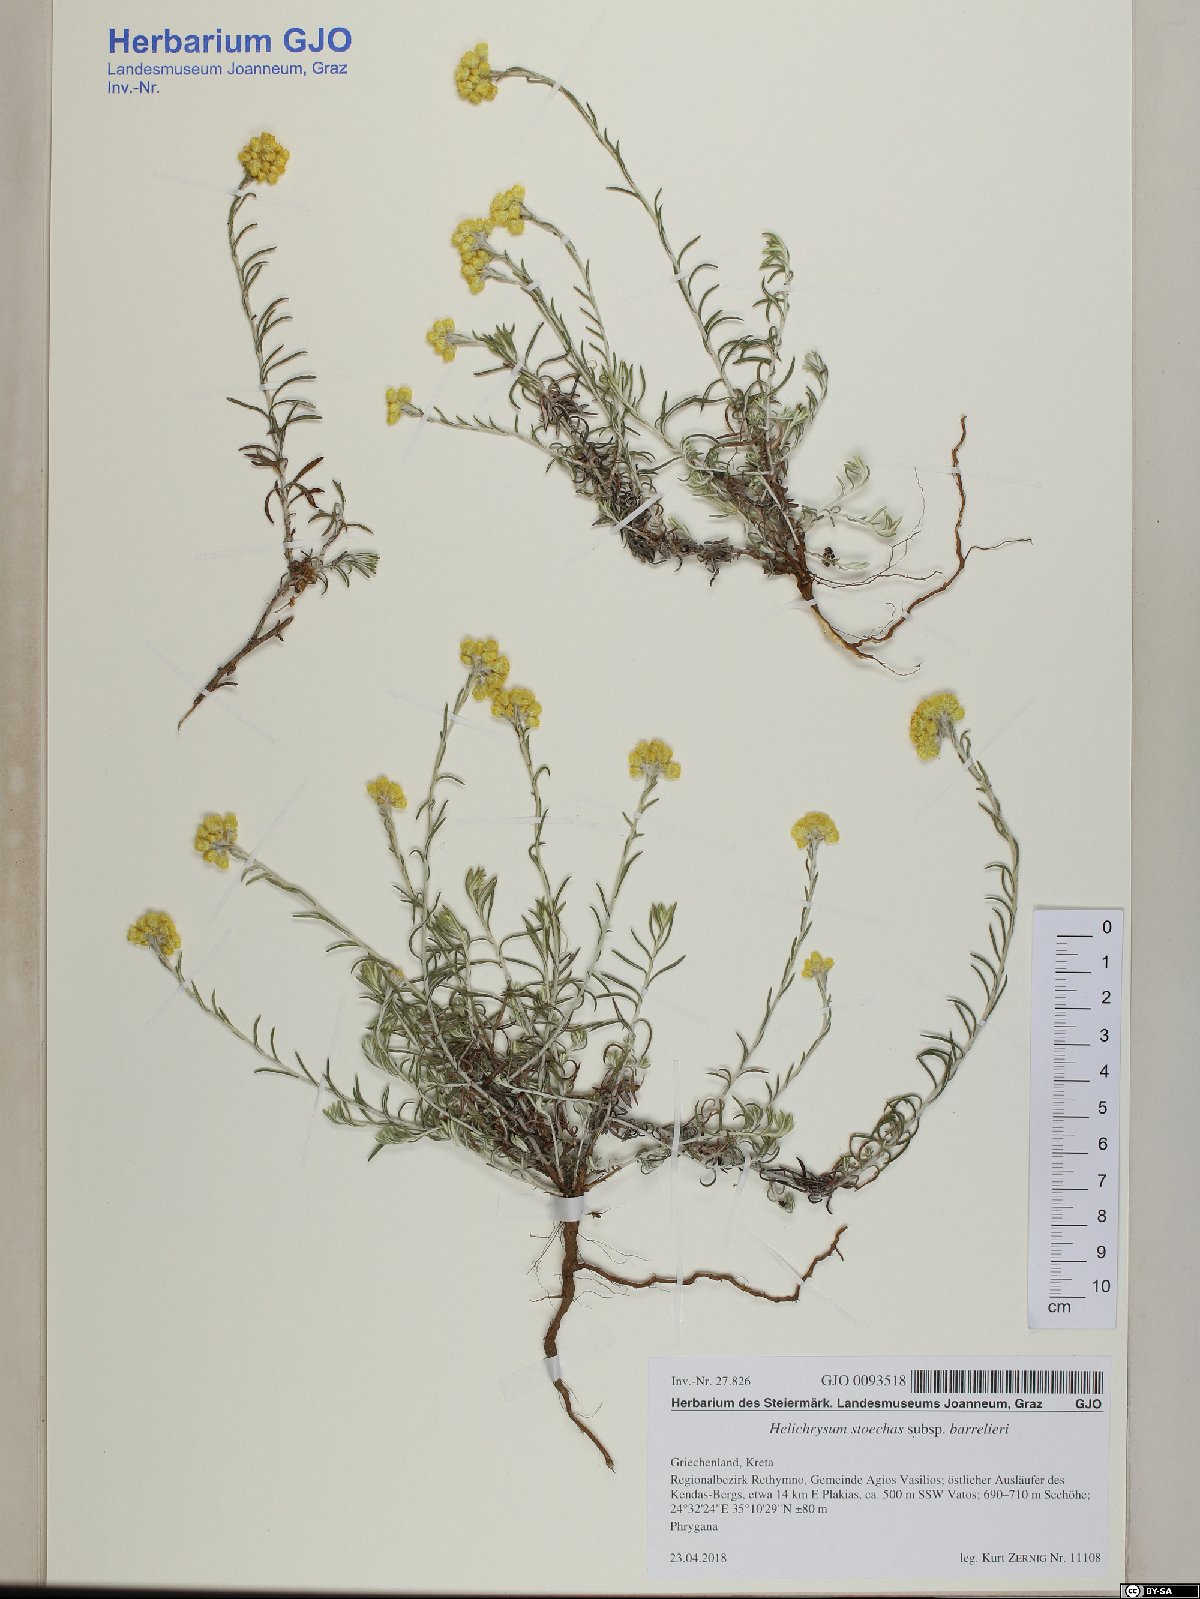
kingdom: Plantae
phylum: Tracheophyta
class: Magnoliopsida
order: Asterales
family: Asteraceae
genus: Helichrysum
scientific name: Helichrysum stoechas
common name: Goldilocks
